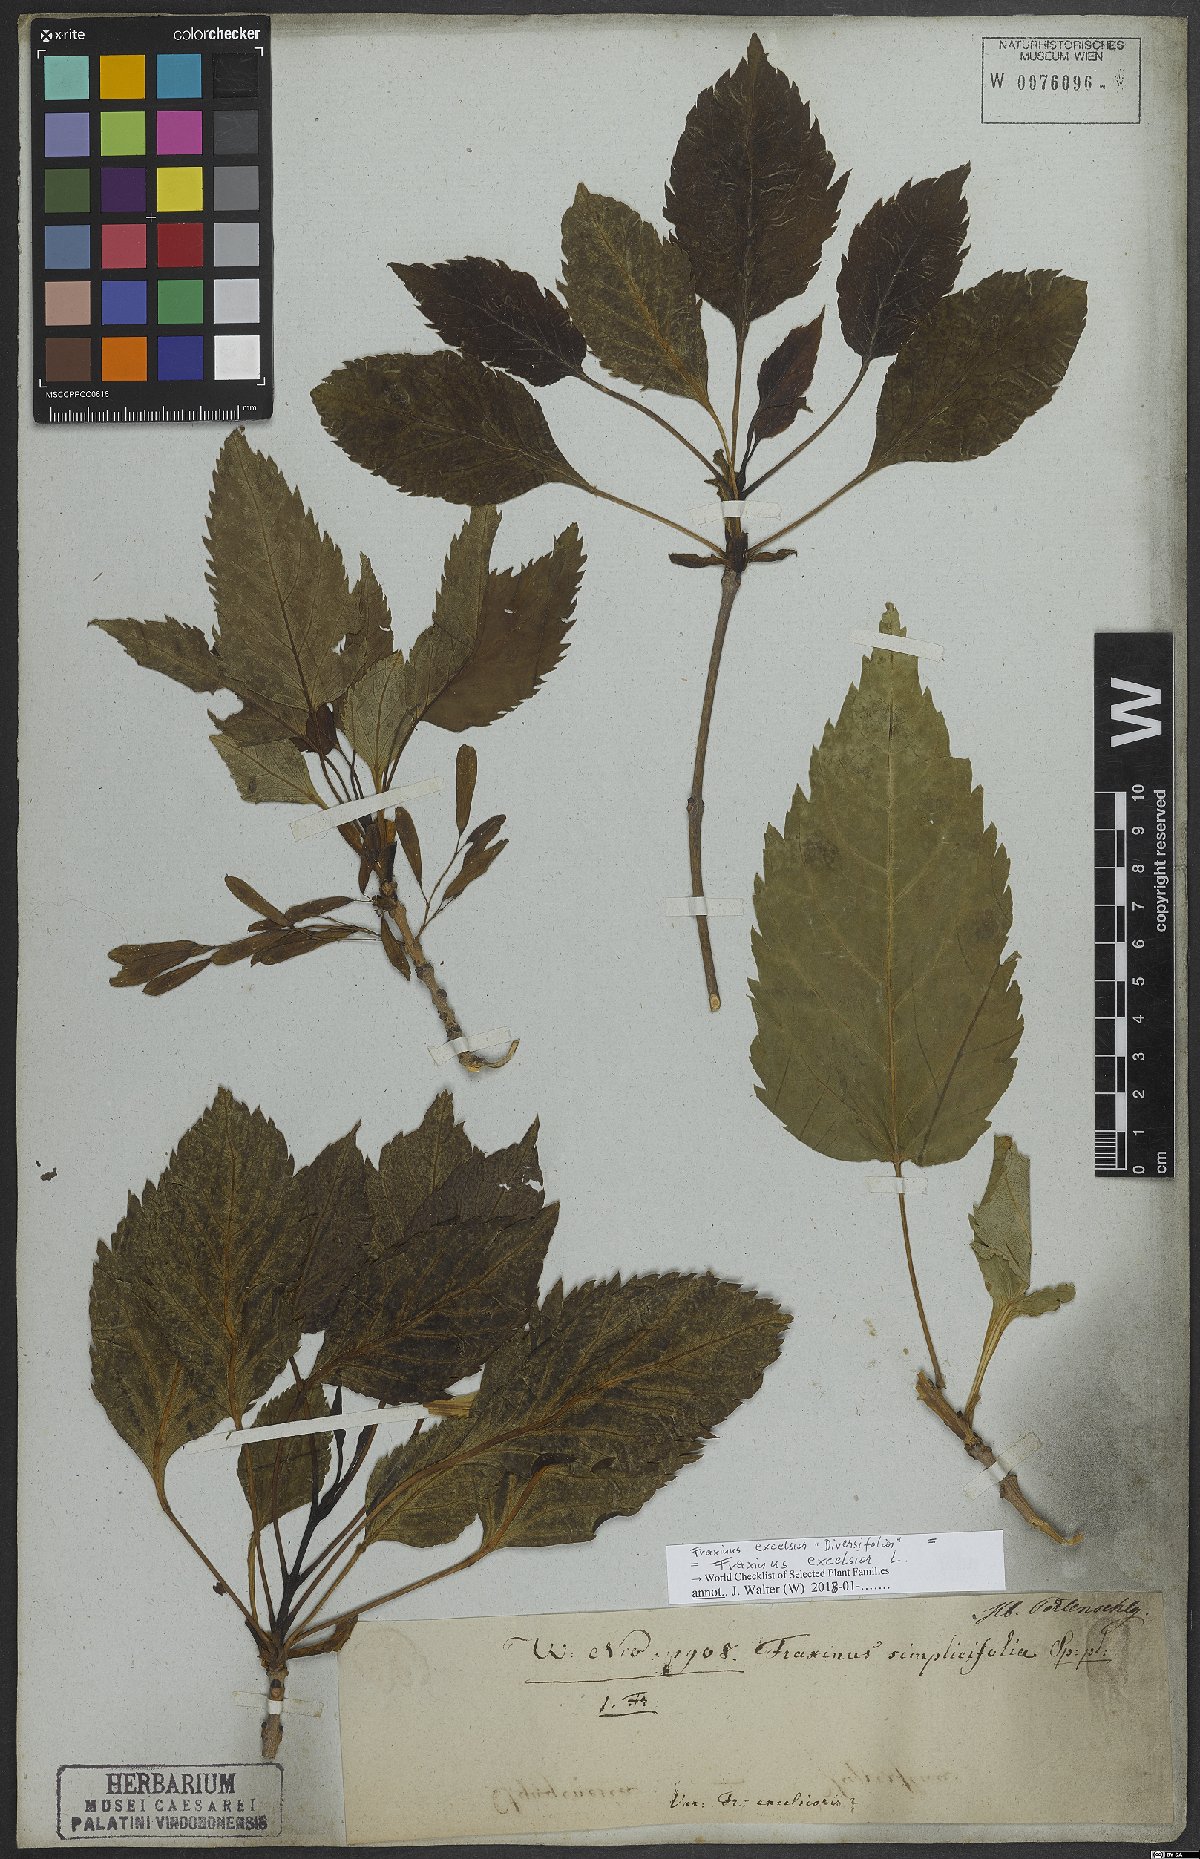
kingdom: Plantae
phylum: Tracheophyta
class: Magnoliopsida
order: Lamiales
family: Oleaceae
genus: Fraxinus
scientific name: Fraxinus excelsior
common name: European ash
